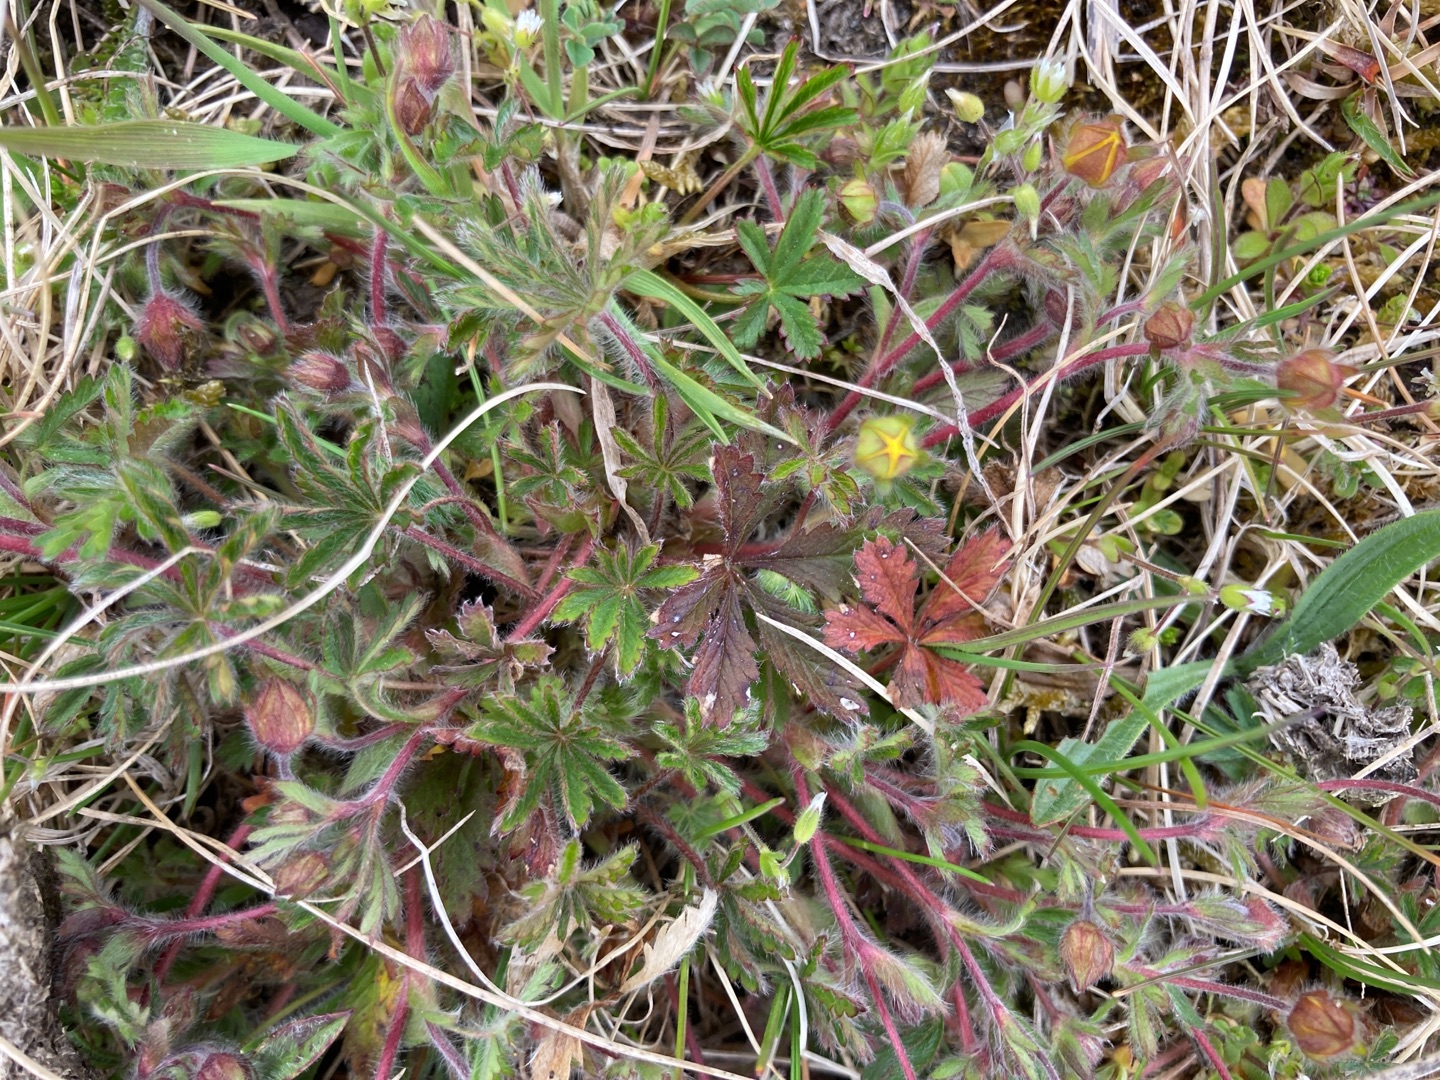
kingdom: Plantae
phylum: Tracheophyta
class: Magnoliopsida
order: Rosales
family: Rosaceae
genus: Potentilla
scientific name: Potentilla heptaphylla
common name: Mat potentil
